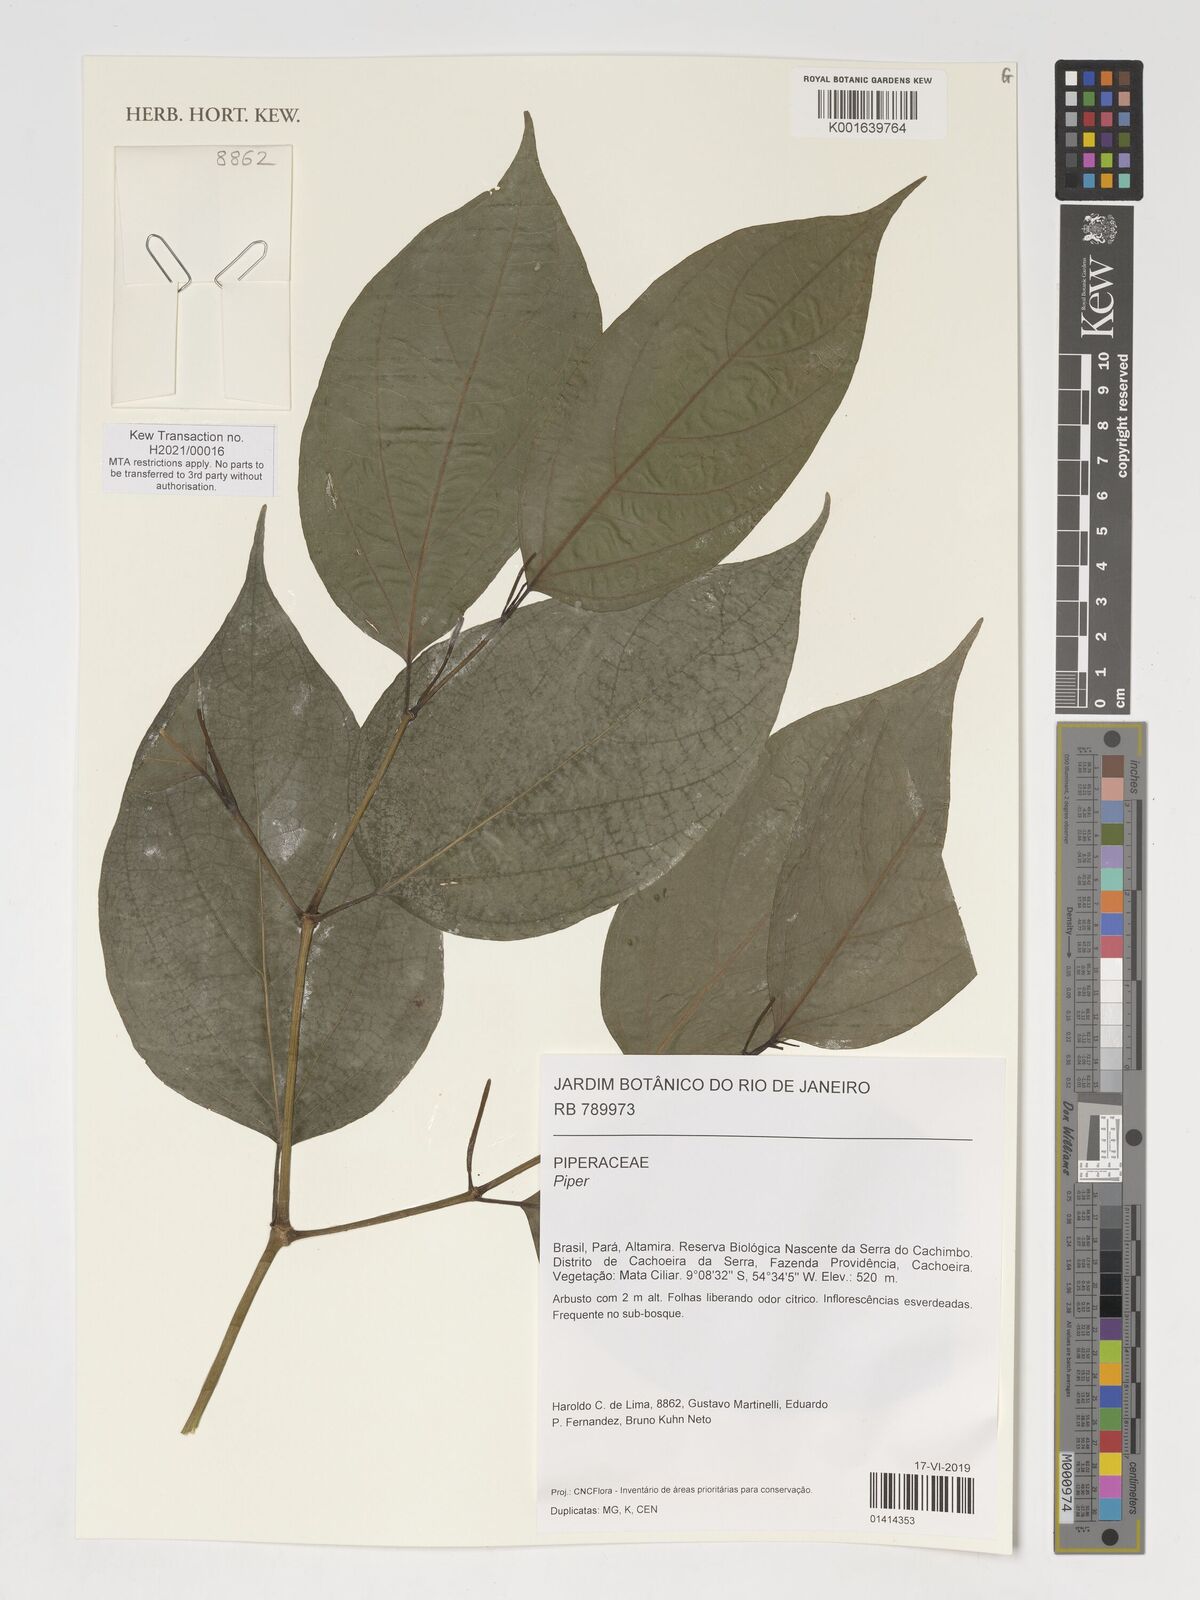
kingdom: Plantae
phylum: Tracheophyta
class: Magnoliopsida
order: Piperales
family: Piperaceae
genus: Piper
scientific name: Piper
